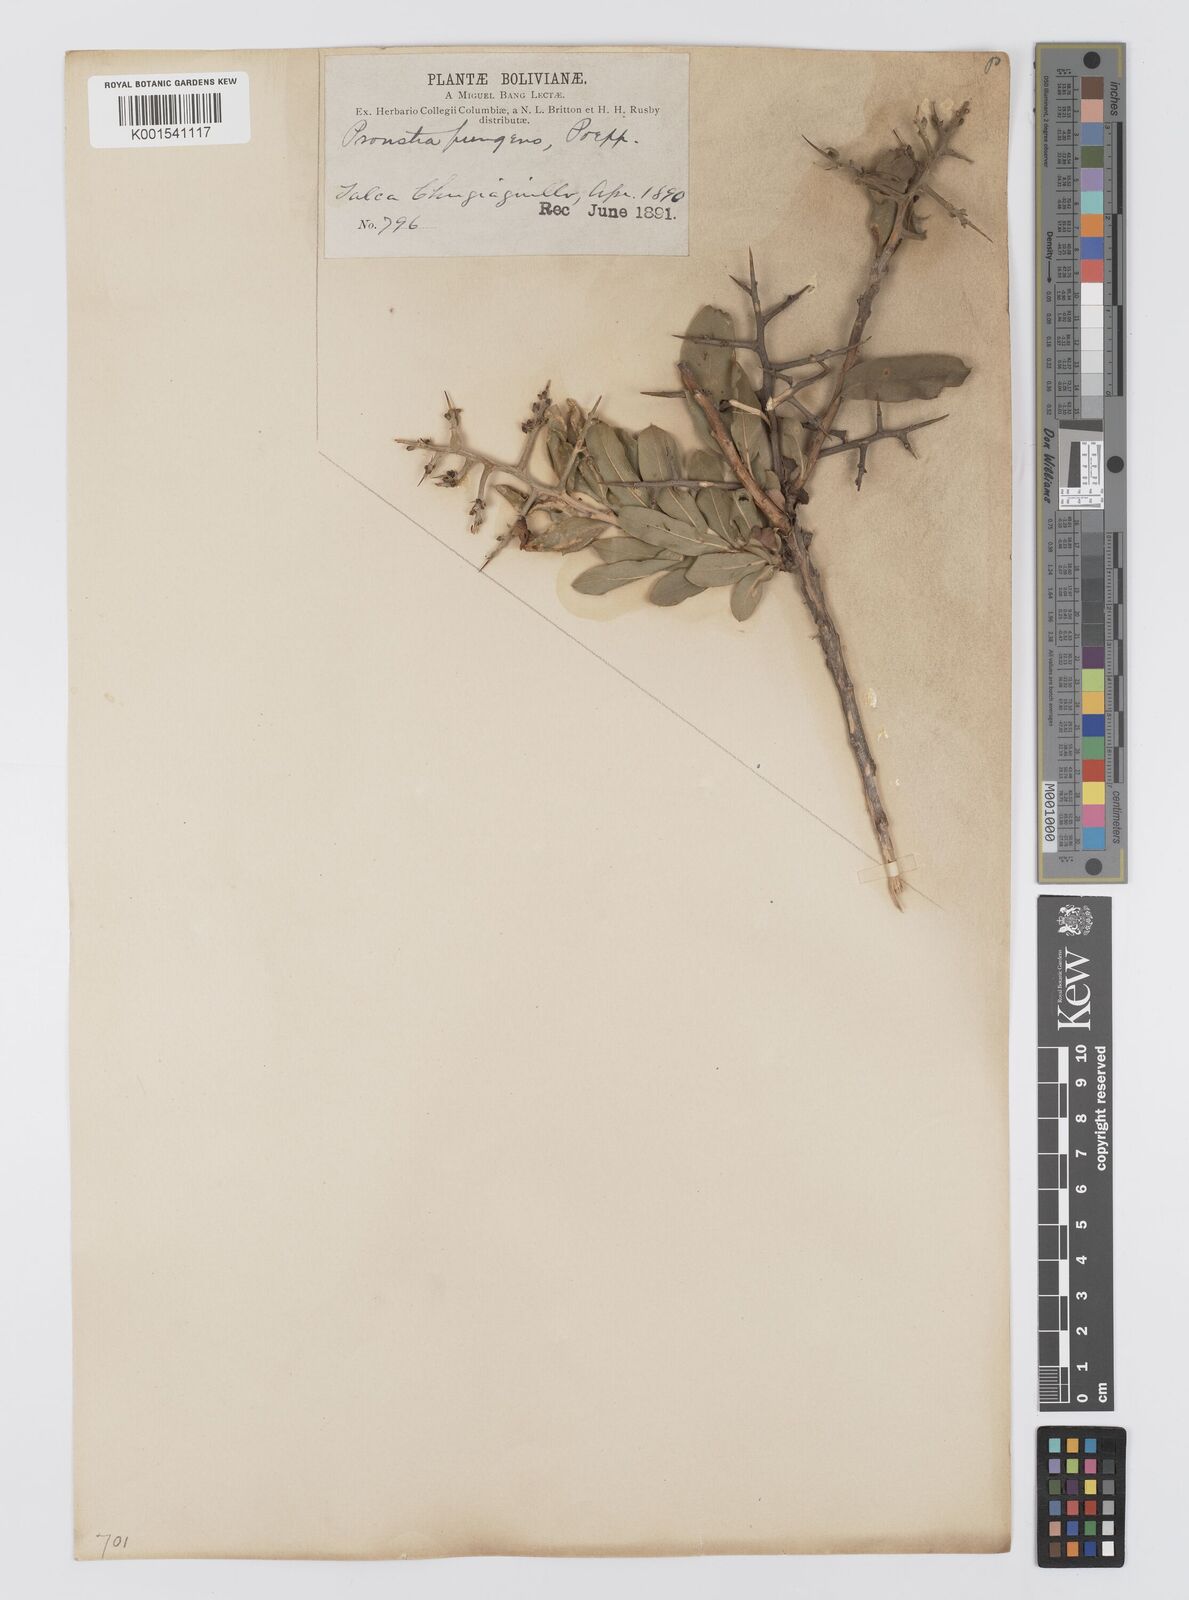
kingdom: Plantae
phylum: Tracheophyta
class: Magnoliopsida
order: Asterales
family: Asteraceae
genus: Proustia
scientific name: Proustia cuneifolia
